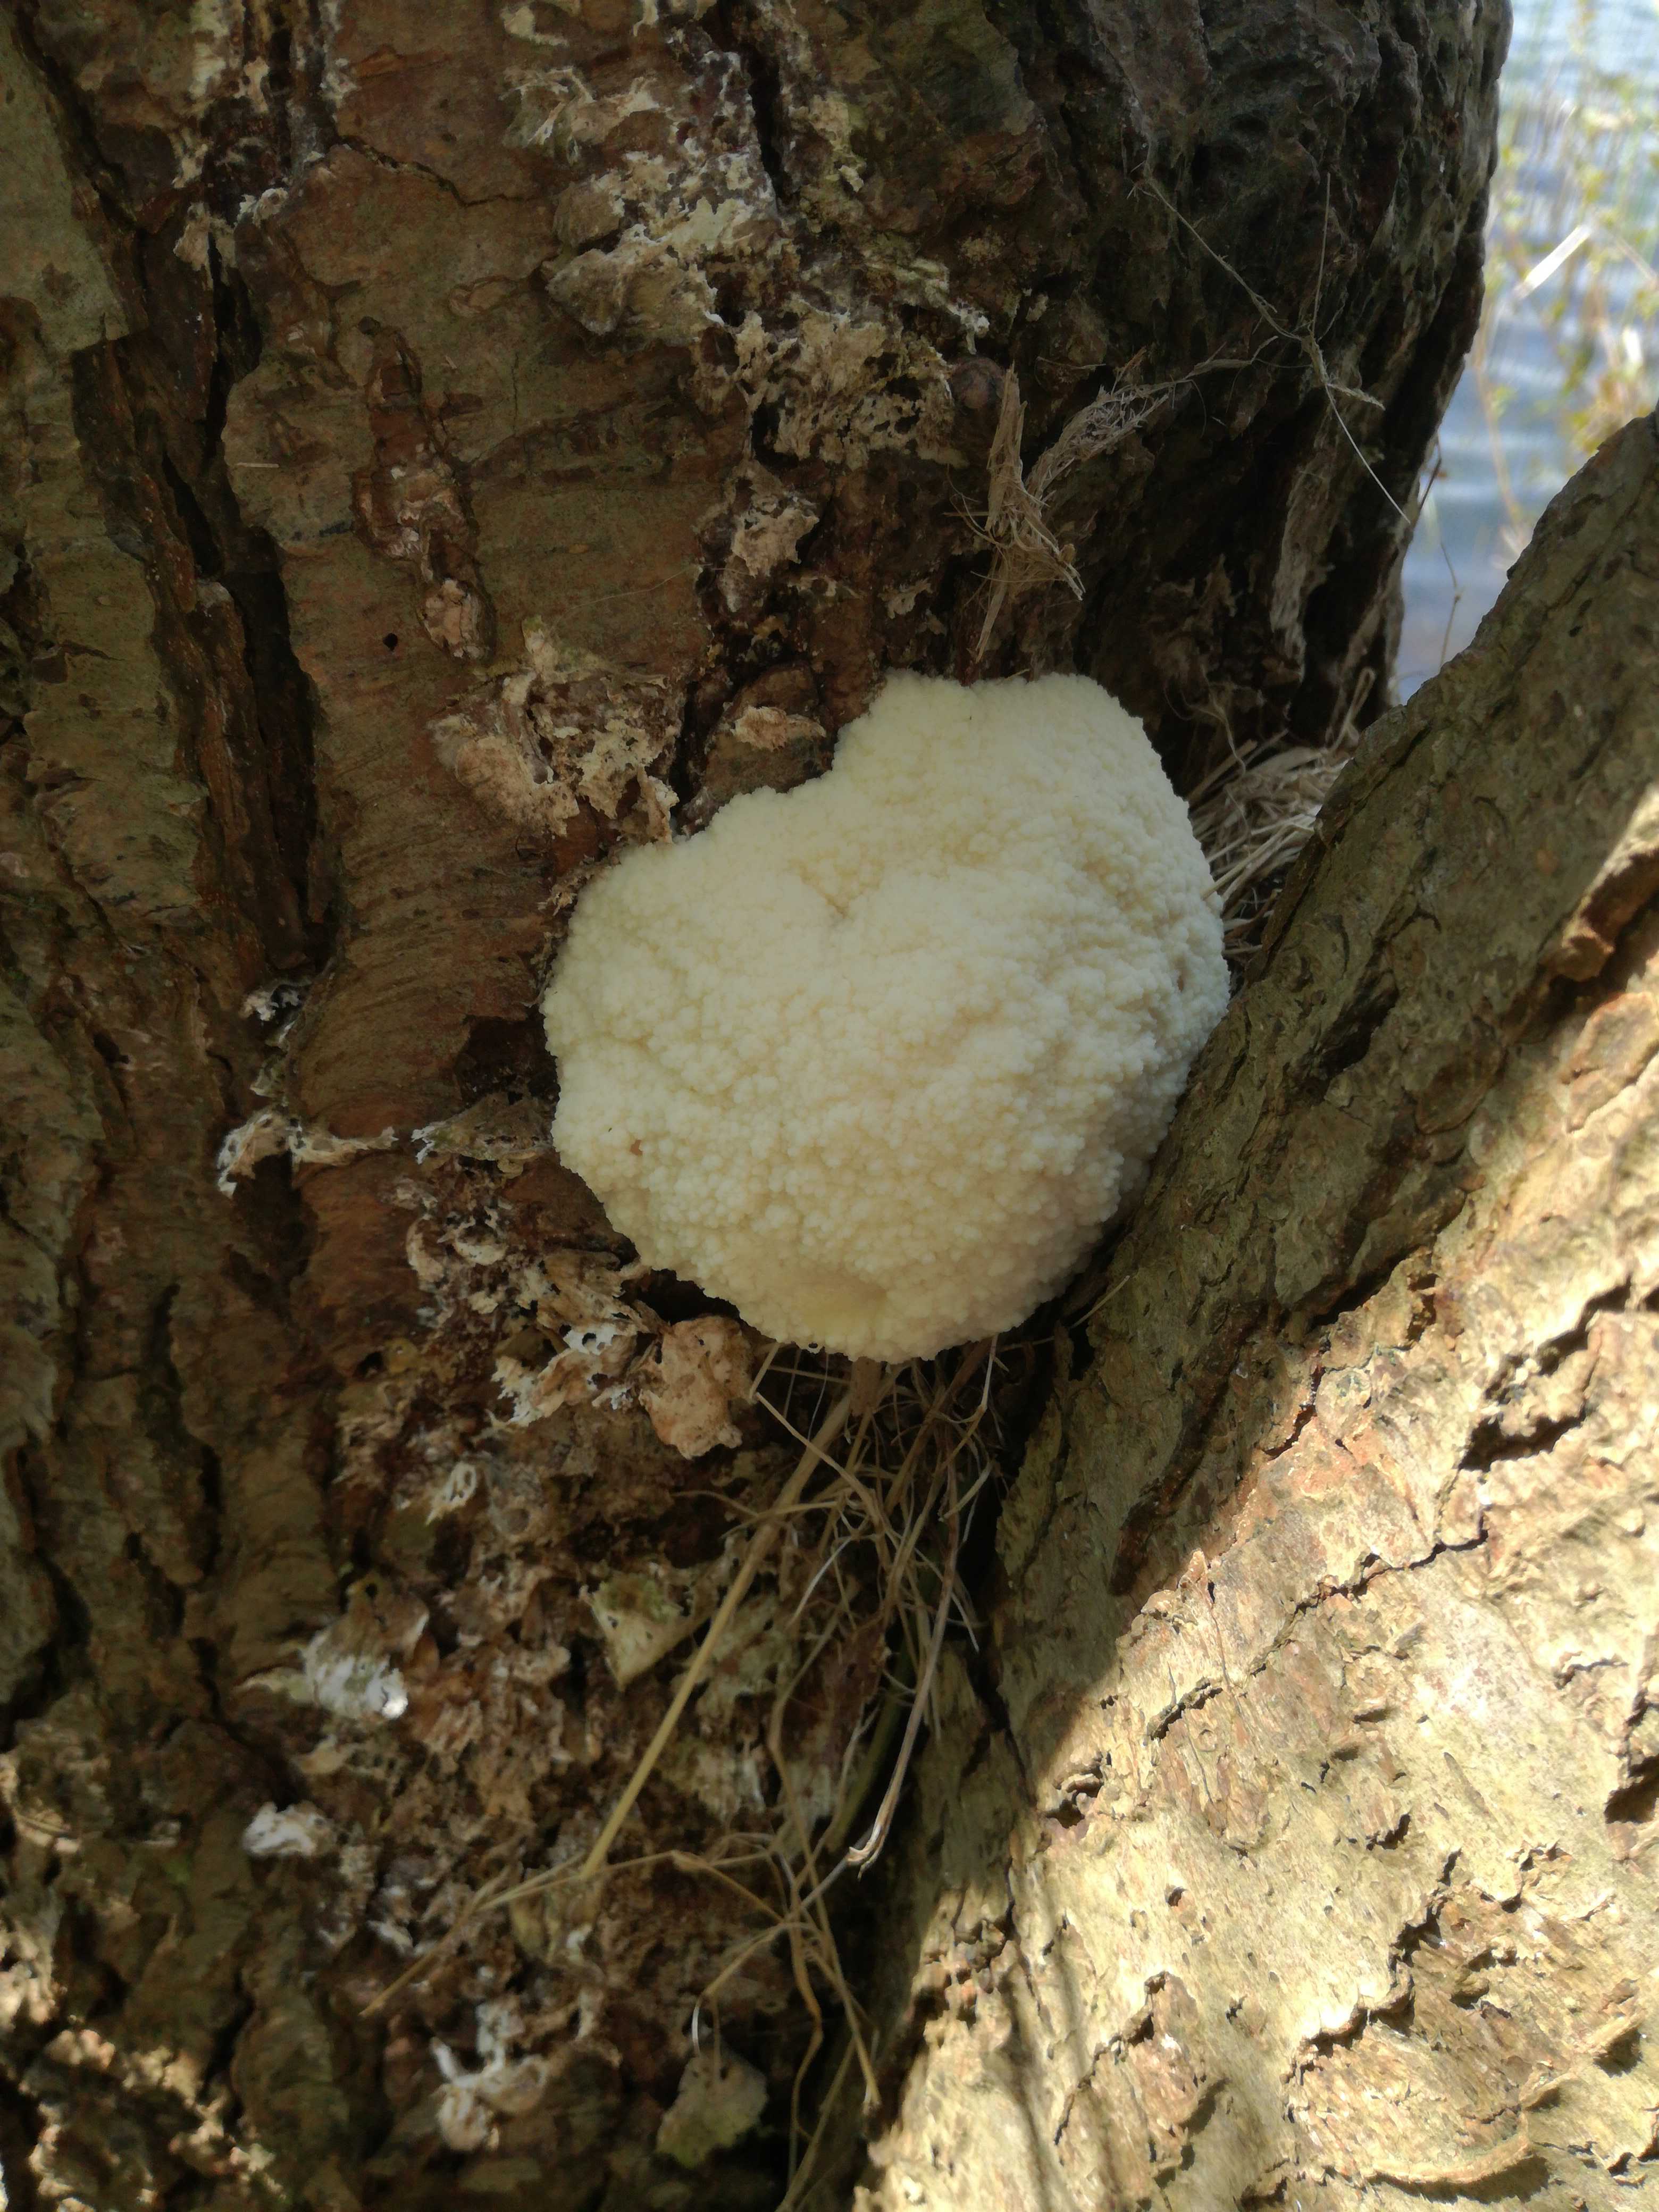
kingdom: Protozoa
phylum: Mycetozoa
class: Myxomycetes
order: Cribrariales
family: Tubiferaceae
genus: Reticularia
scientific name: Reticularia lycoperdon
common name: skinnende støvpude
